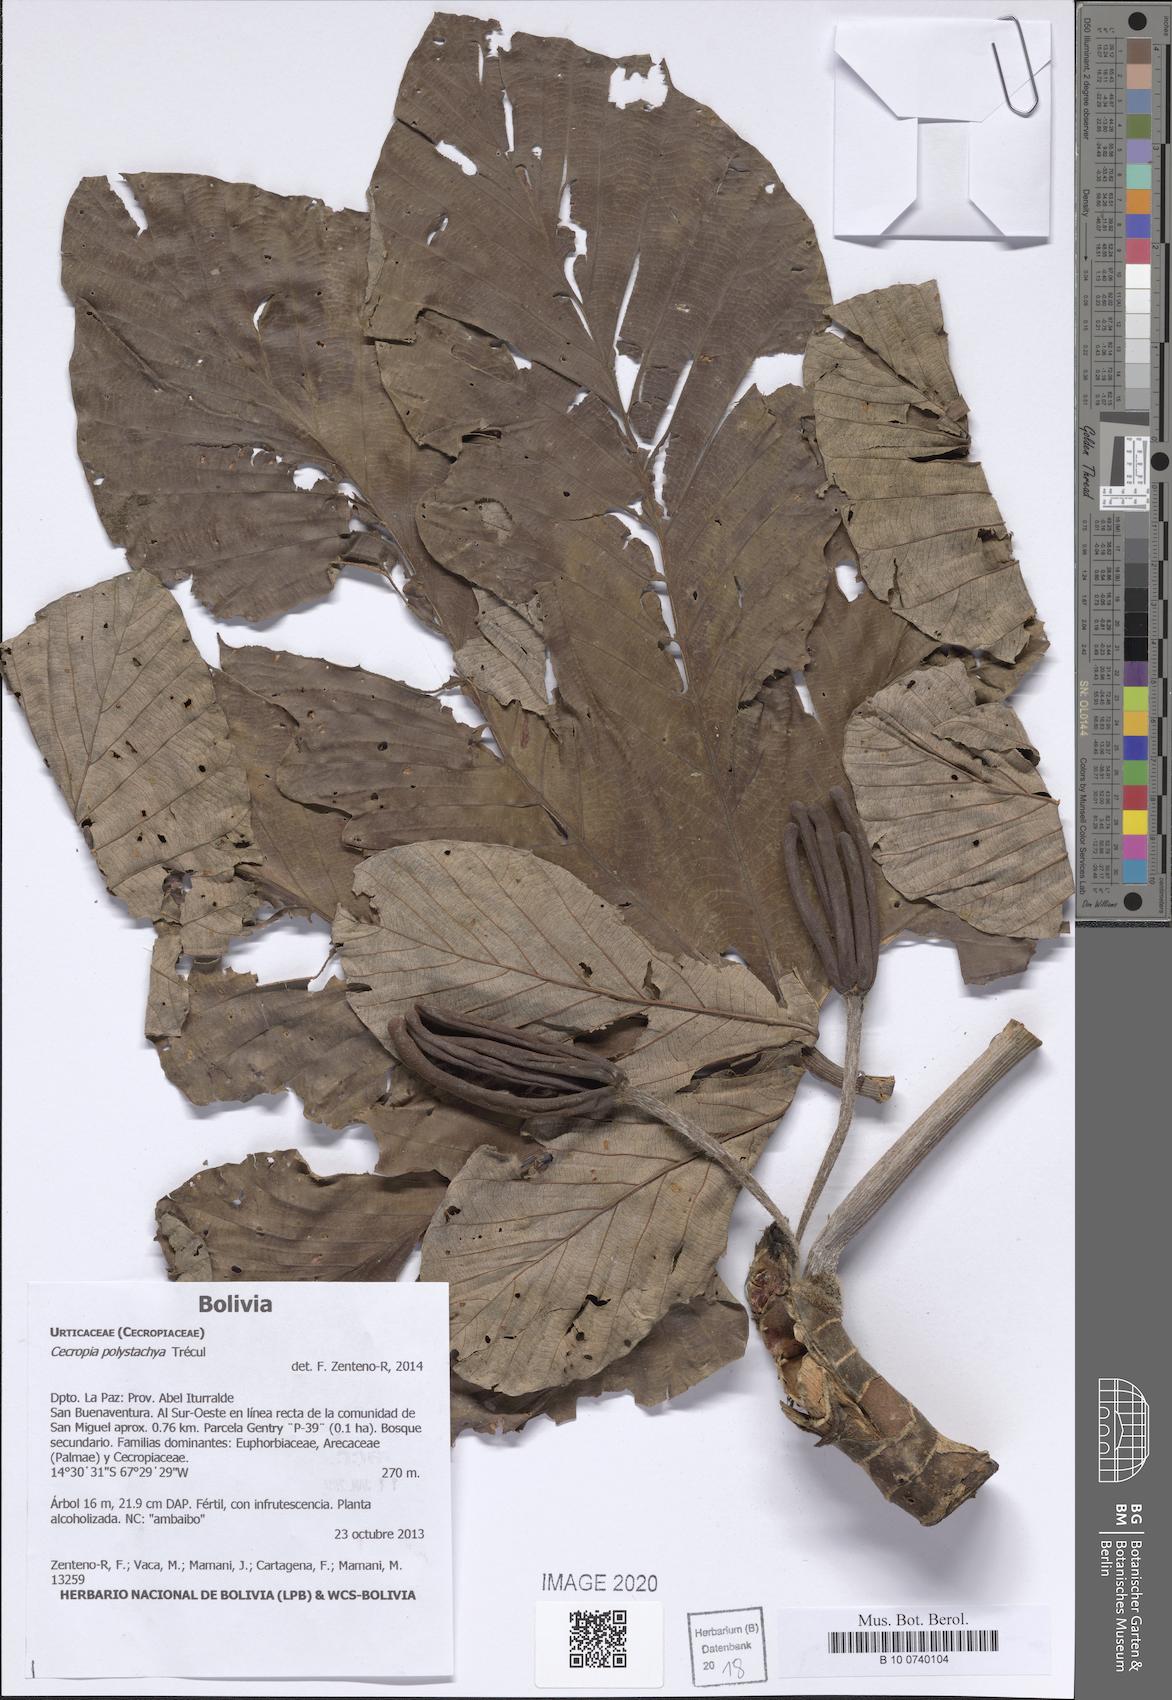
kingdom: Plantae
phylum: Tracheophyta
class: Magnoliopsida
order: Rosales
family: Urticaceae
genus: Cecropia
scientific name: Cecropia polystachya
